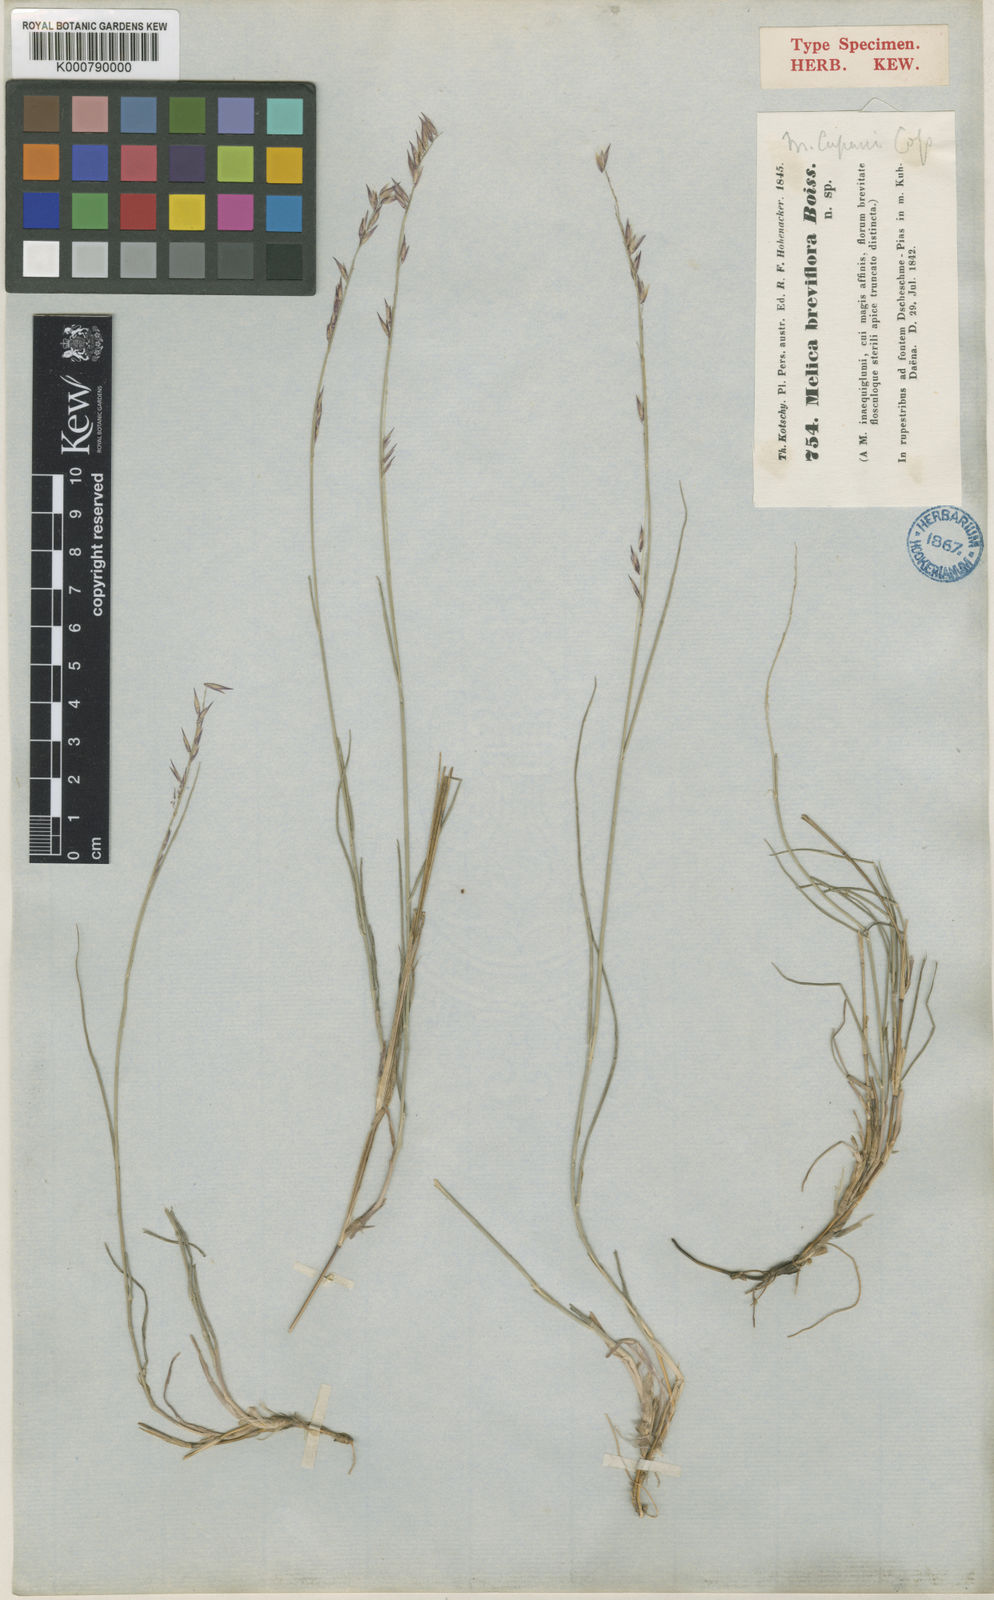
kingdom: Plantae
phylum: Tracheophyta
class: Liliopsida
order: Poales
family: Poaceae
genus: Melica
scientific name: Melica persica
